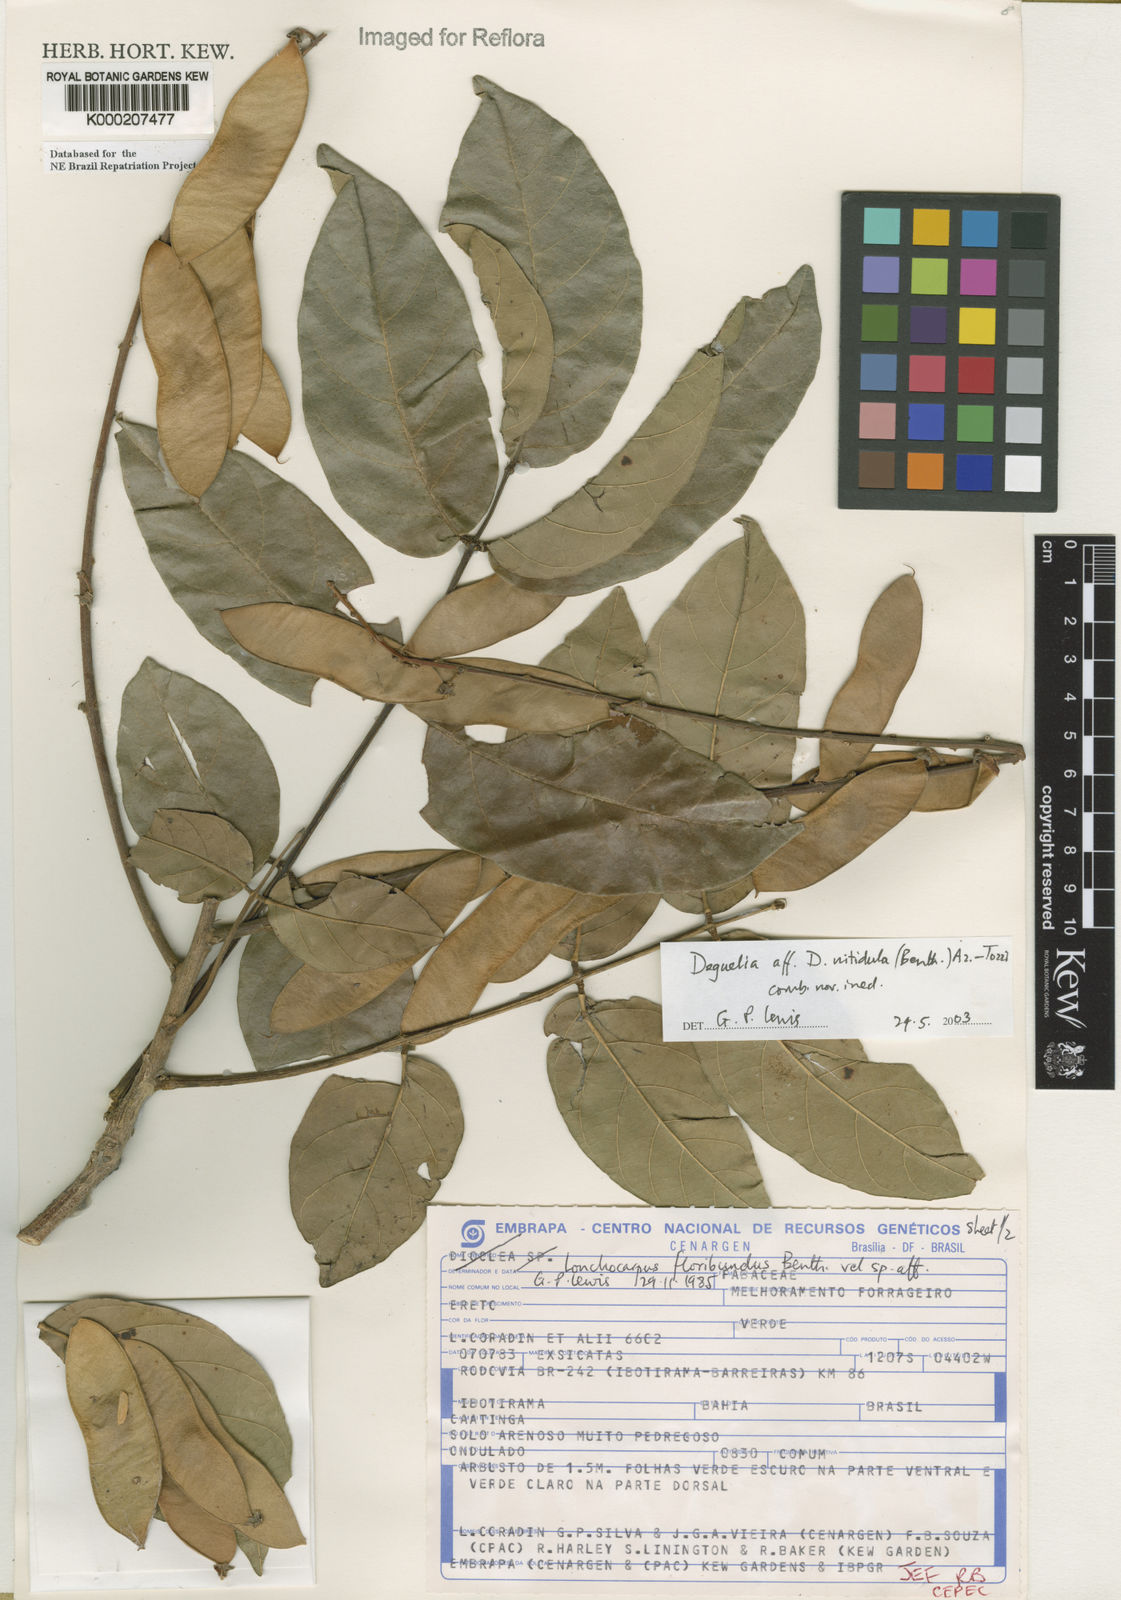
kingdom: Plantae
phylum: Tracheophyta
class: Magnoliopsida
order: Fabales
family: Fabaceae
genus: Deguelia
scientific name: Deguelia
